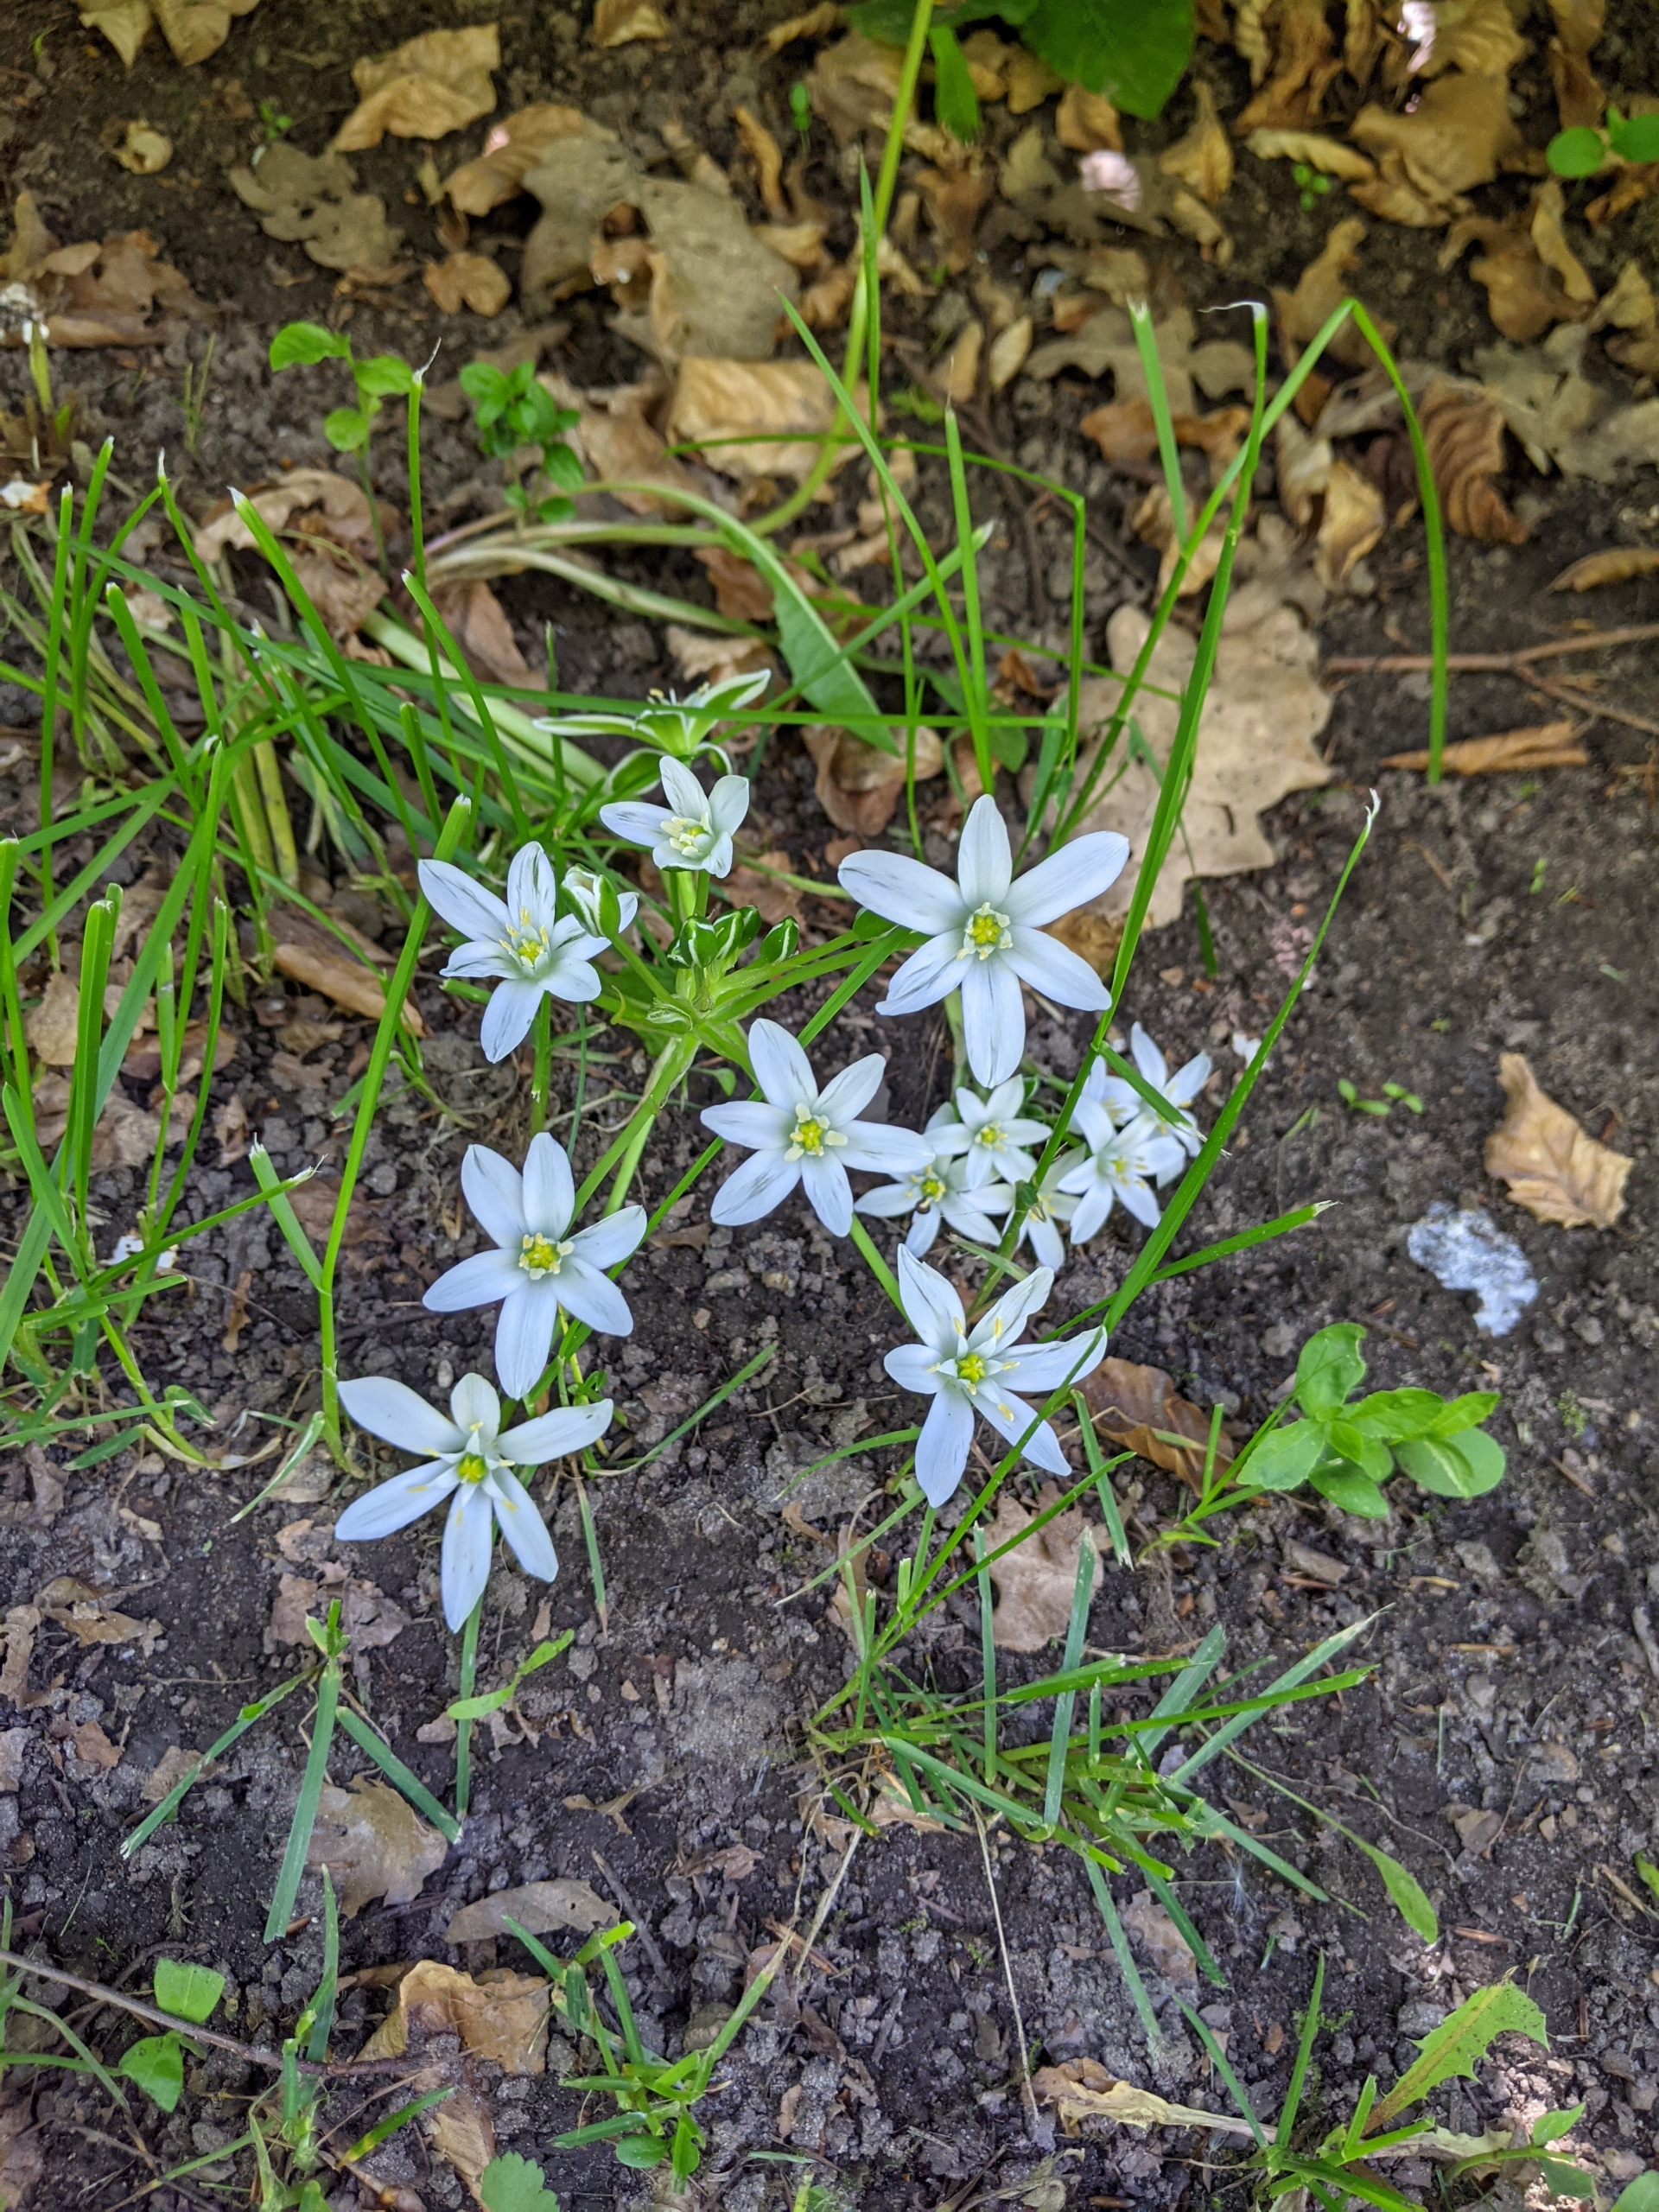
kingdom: Plantae
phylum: Tracheophyta
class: Liliopsida
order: Asparagales
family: Asparagaceae
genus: Ornithogalum
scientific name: Ornithogalum umbellatum
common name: Kost-fuglemælk
